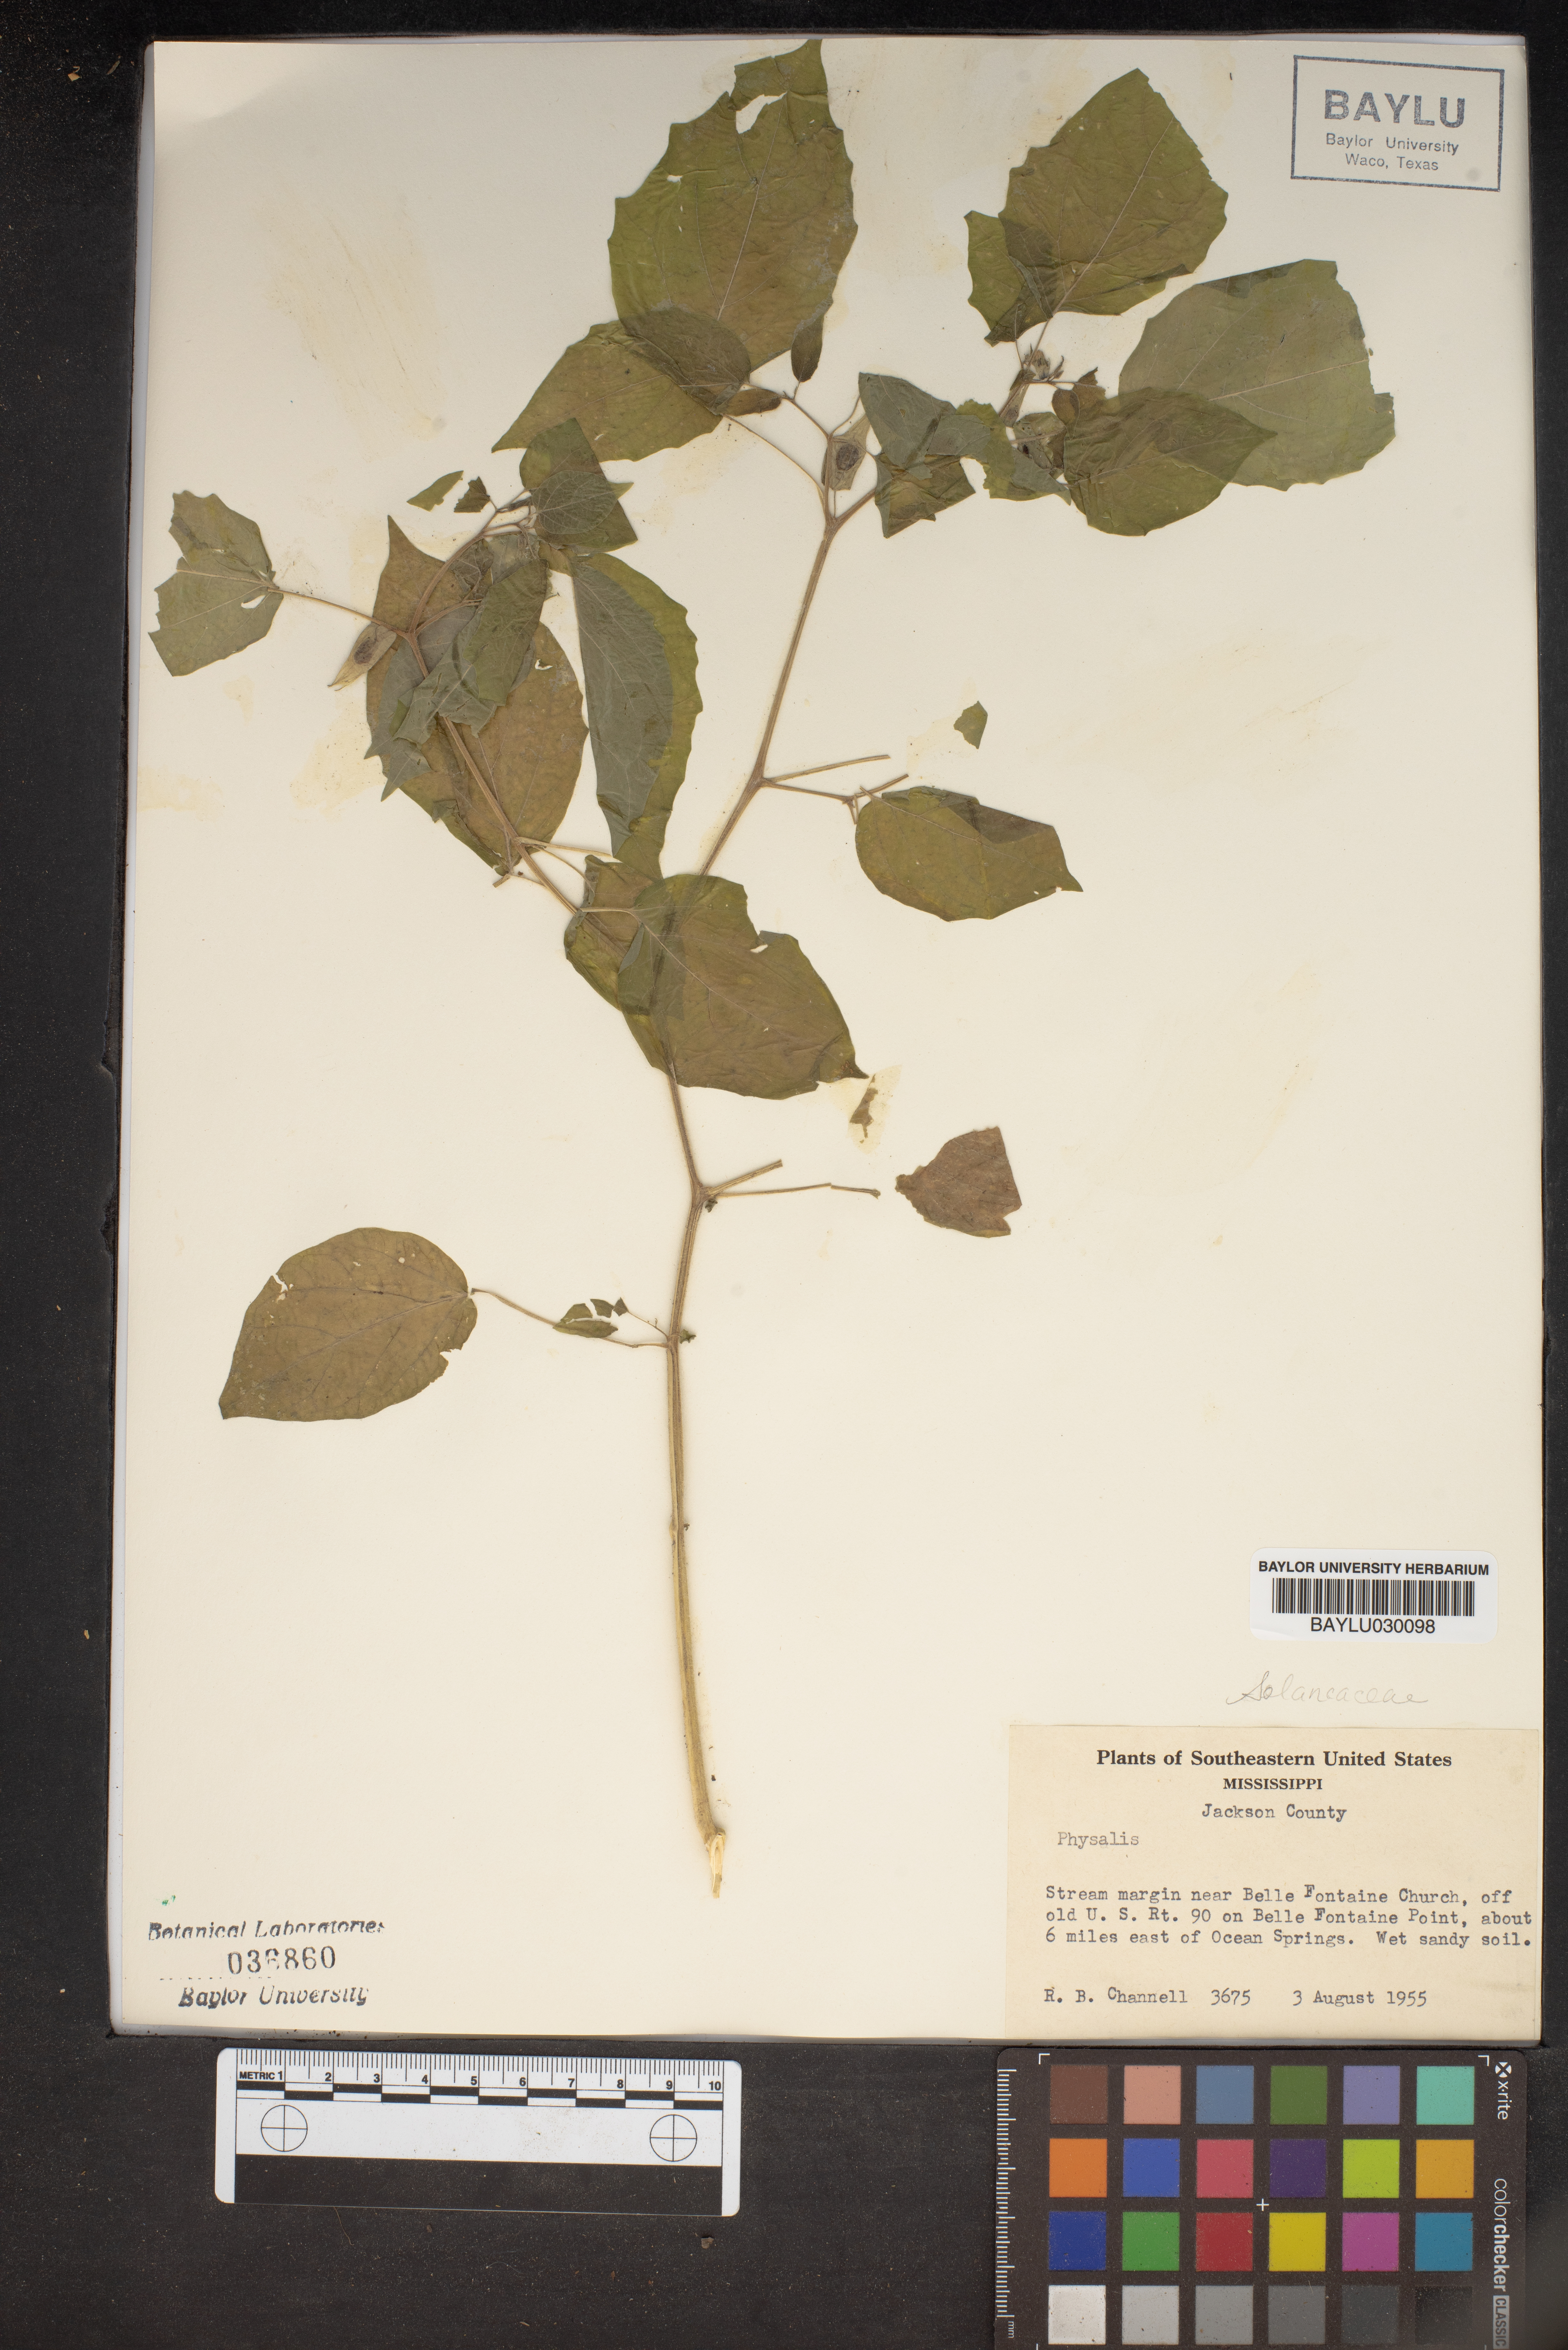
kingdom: Plantae
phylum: Tracheophyta
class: Magnoliopsida
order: Solanales
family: Solanaceae
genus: Physalis
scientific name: Physalis
